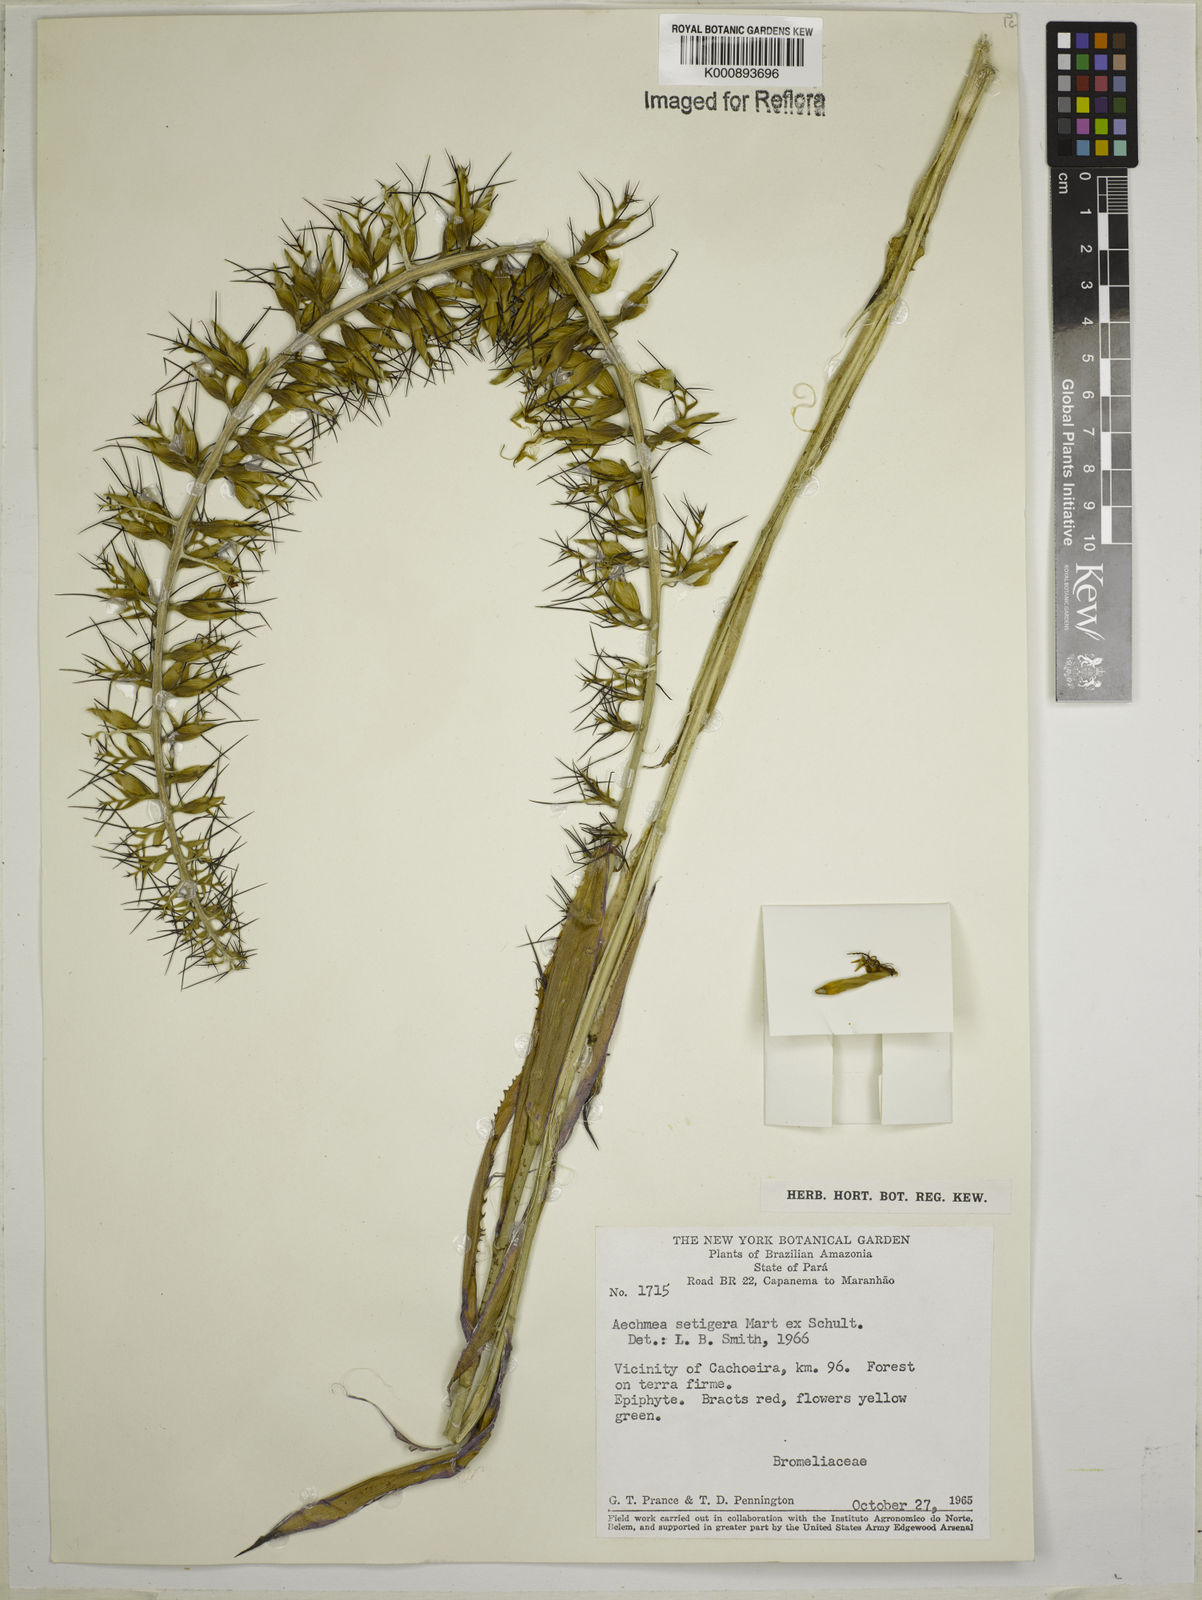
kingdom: Plantae
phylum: Tracheophyta
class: Liliopsida
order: Poales
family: Bromeliaceae
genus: Aechmea
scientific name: Aechmea setigera
